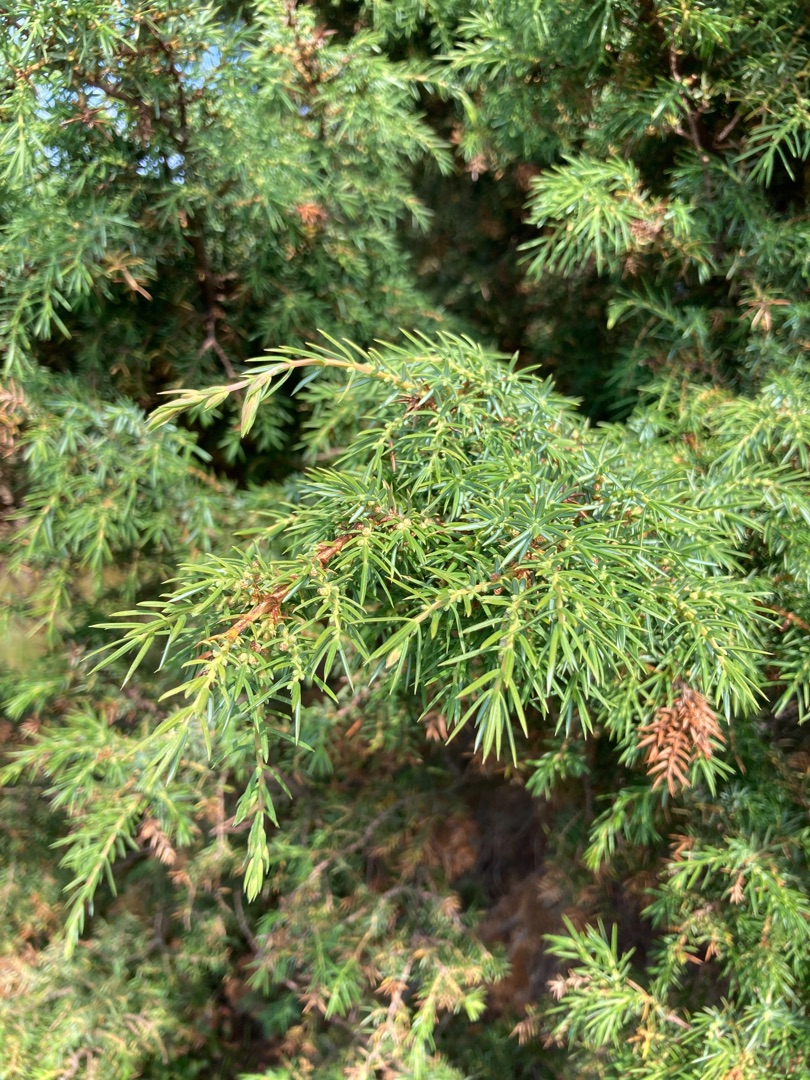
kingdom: Plantae
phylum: Tracheophyta
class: Pinopsida
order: Pinales
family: Cupressaceae
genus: Juniperus
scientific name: Juniperus communis
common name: Almindelig ene
